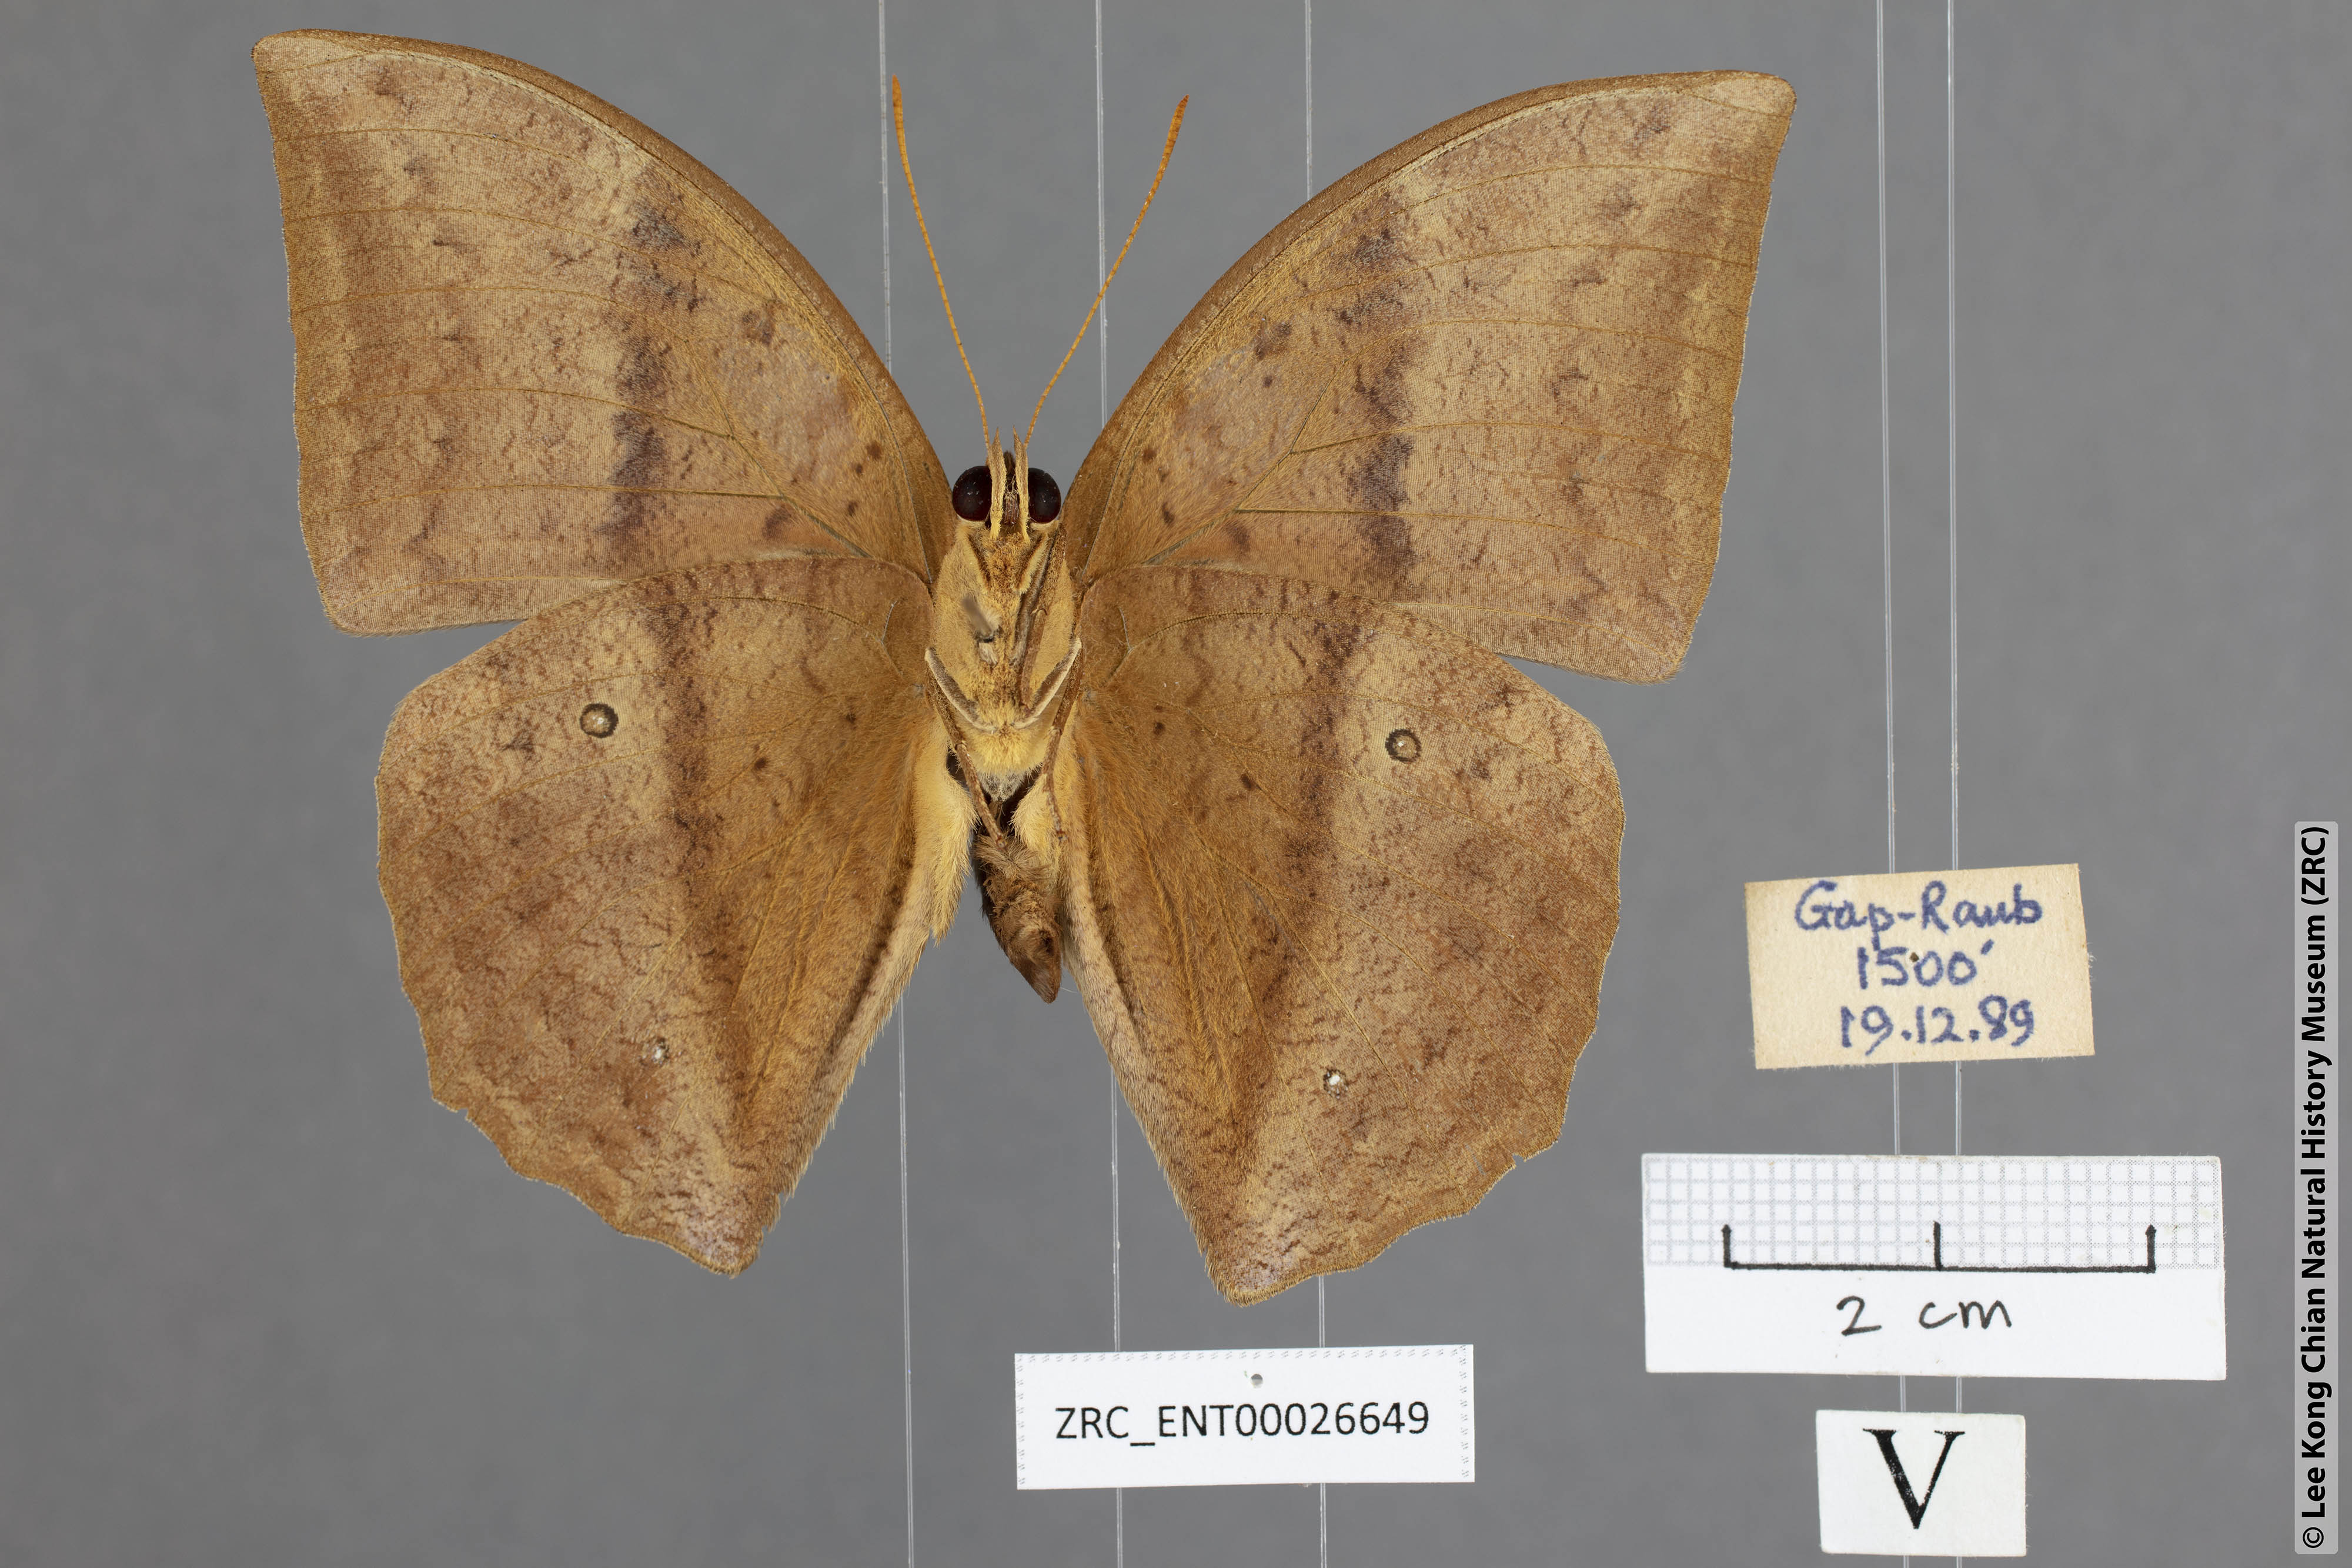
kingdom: Animalia
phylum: Arthropoda
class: Insecta
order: Lepidoptera
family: Nymphalidae
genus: Discophora
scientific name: Discophora sondaica
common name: Common duffer
